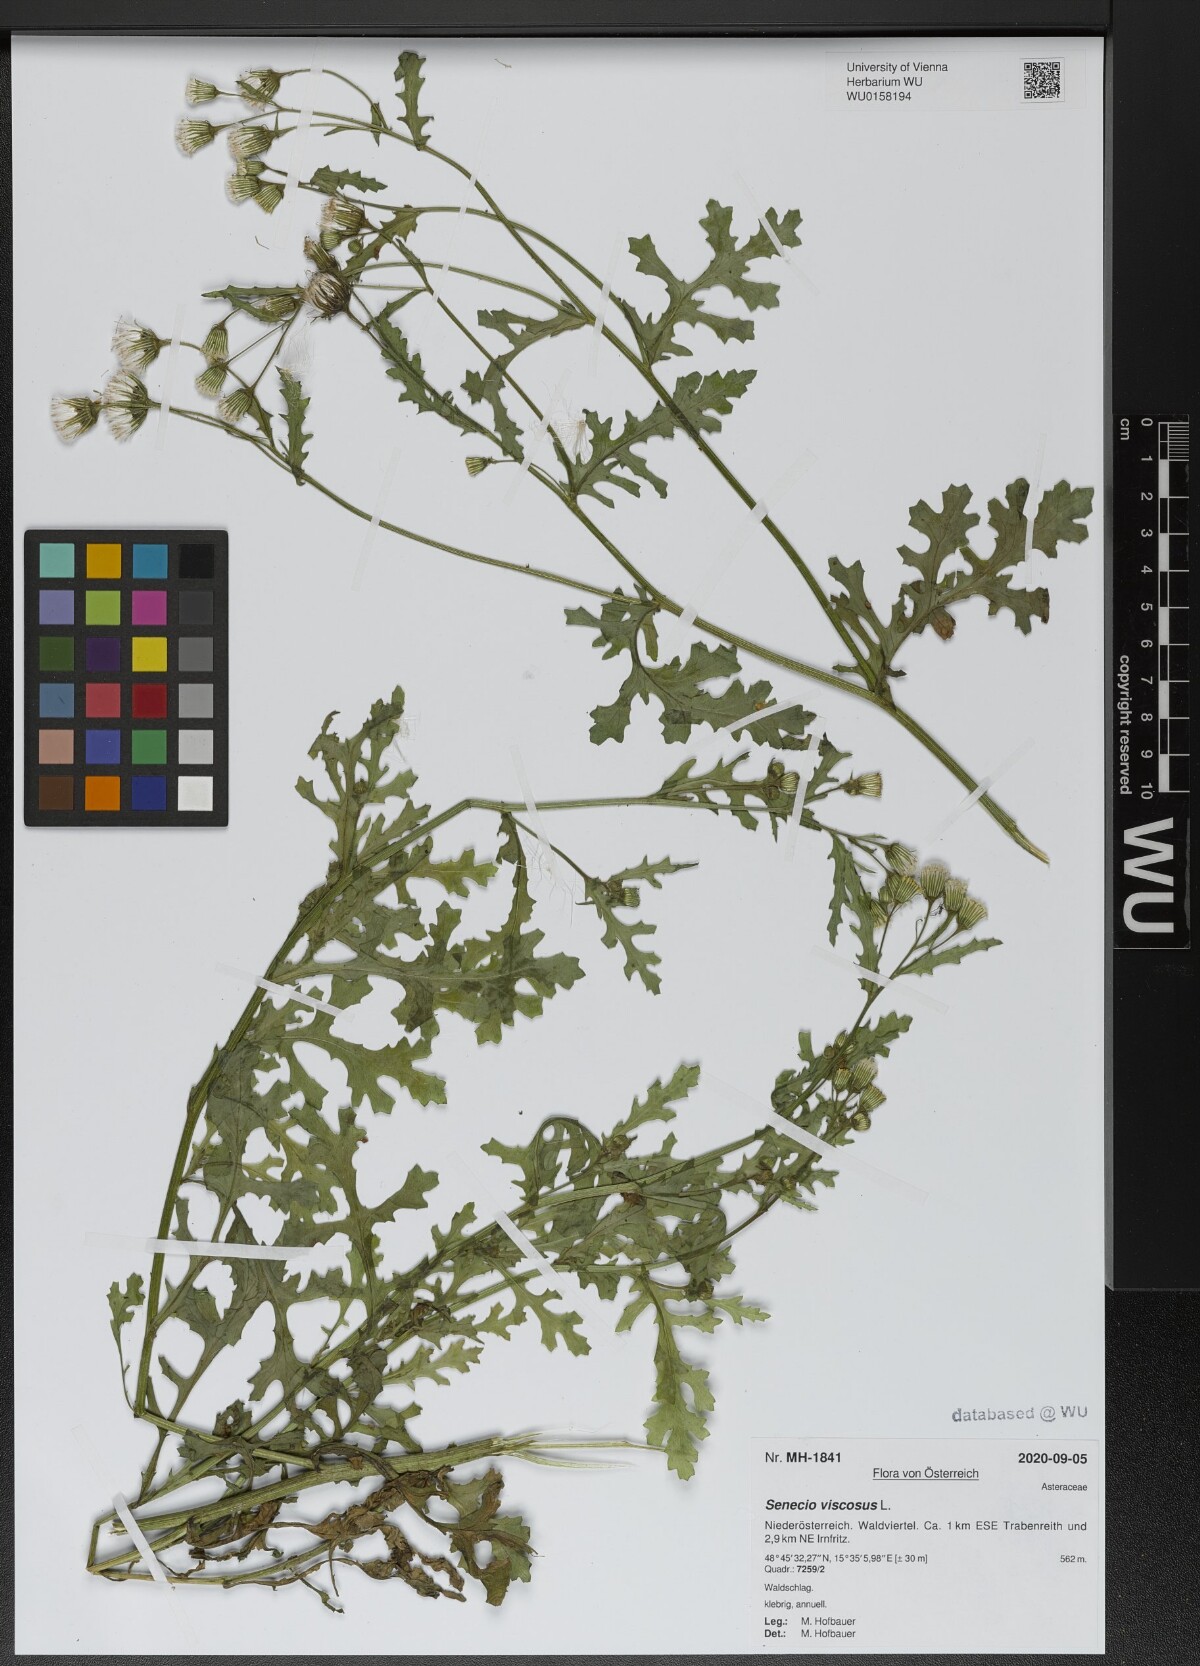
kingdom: Plantae
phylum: Tracheophyta
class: Magnoliopsida
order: Asterales
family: Asteraceae
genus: Senecio
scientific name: Senecio viscosus
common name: Sticky groundsel
